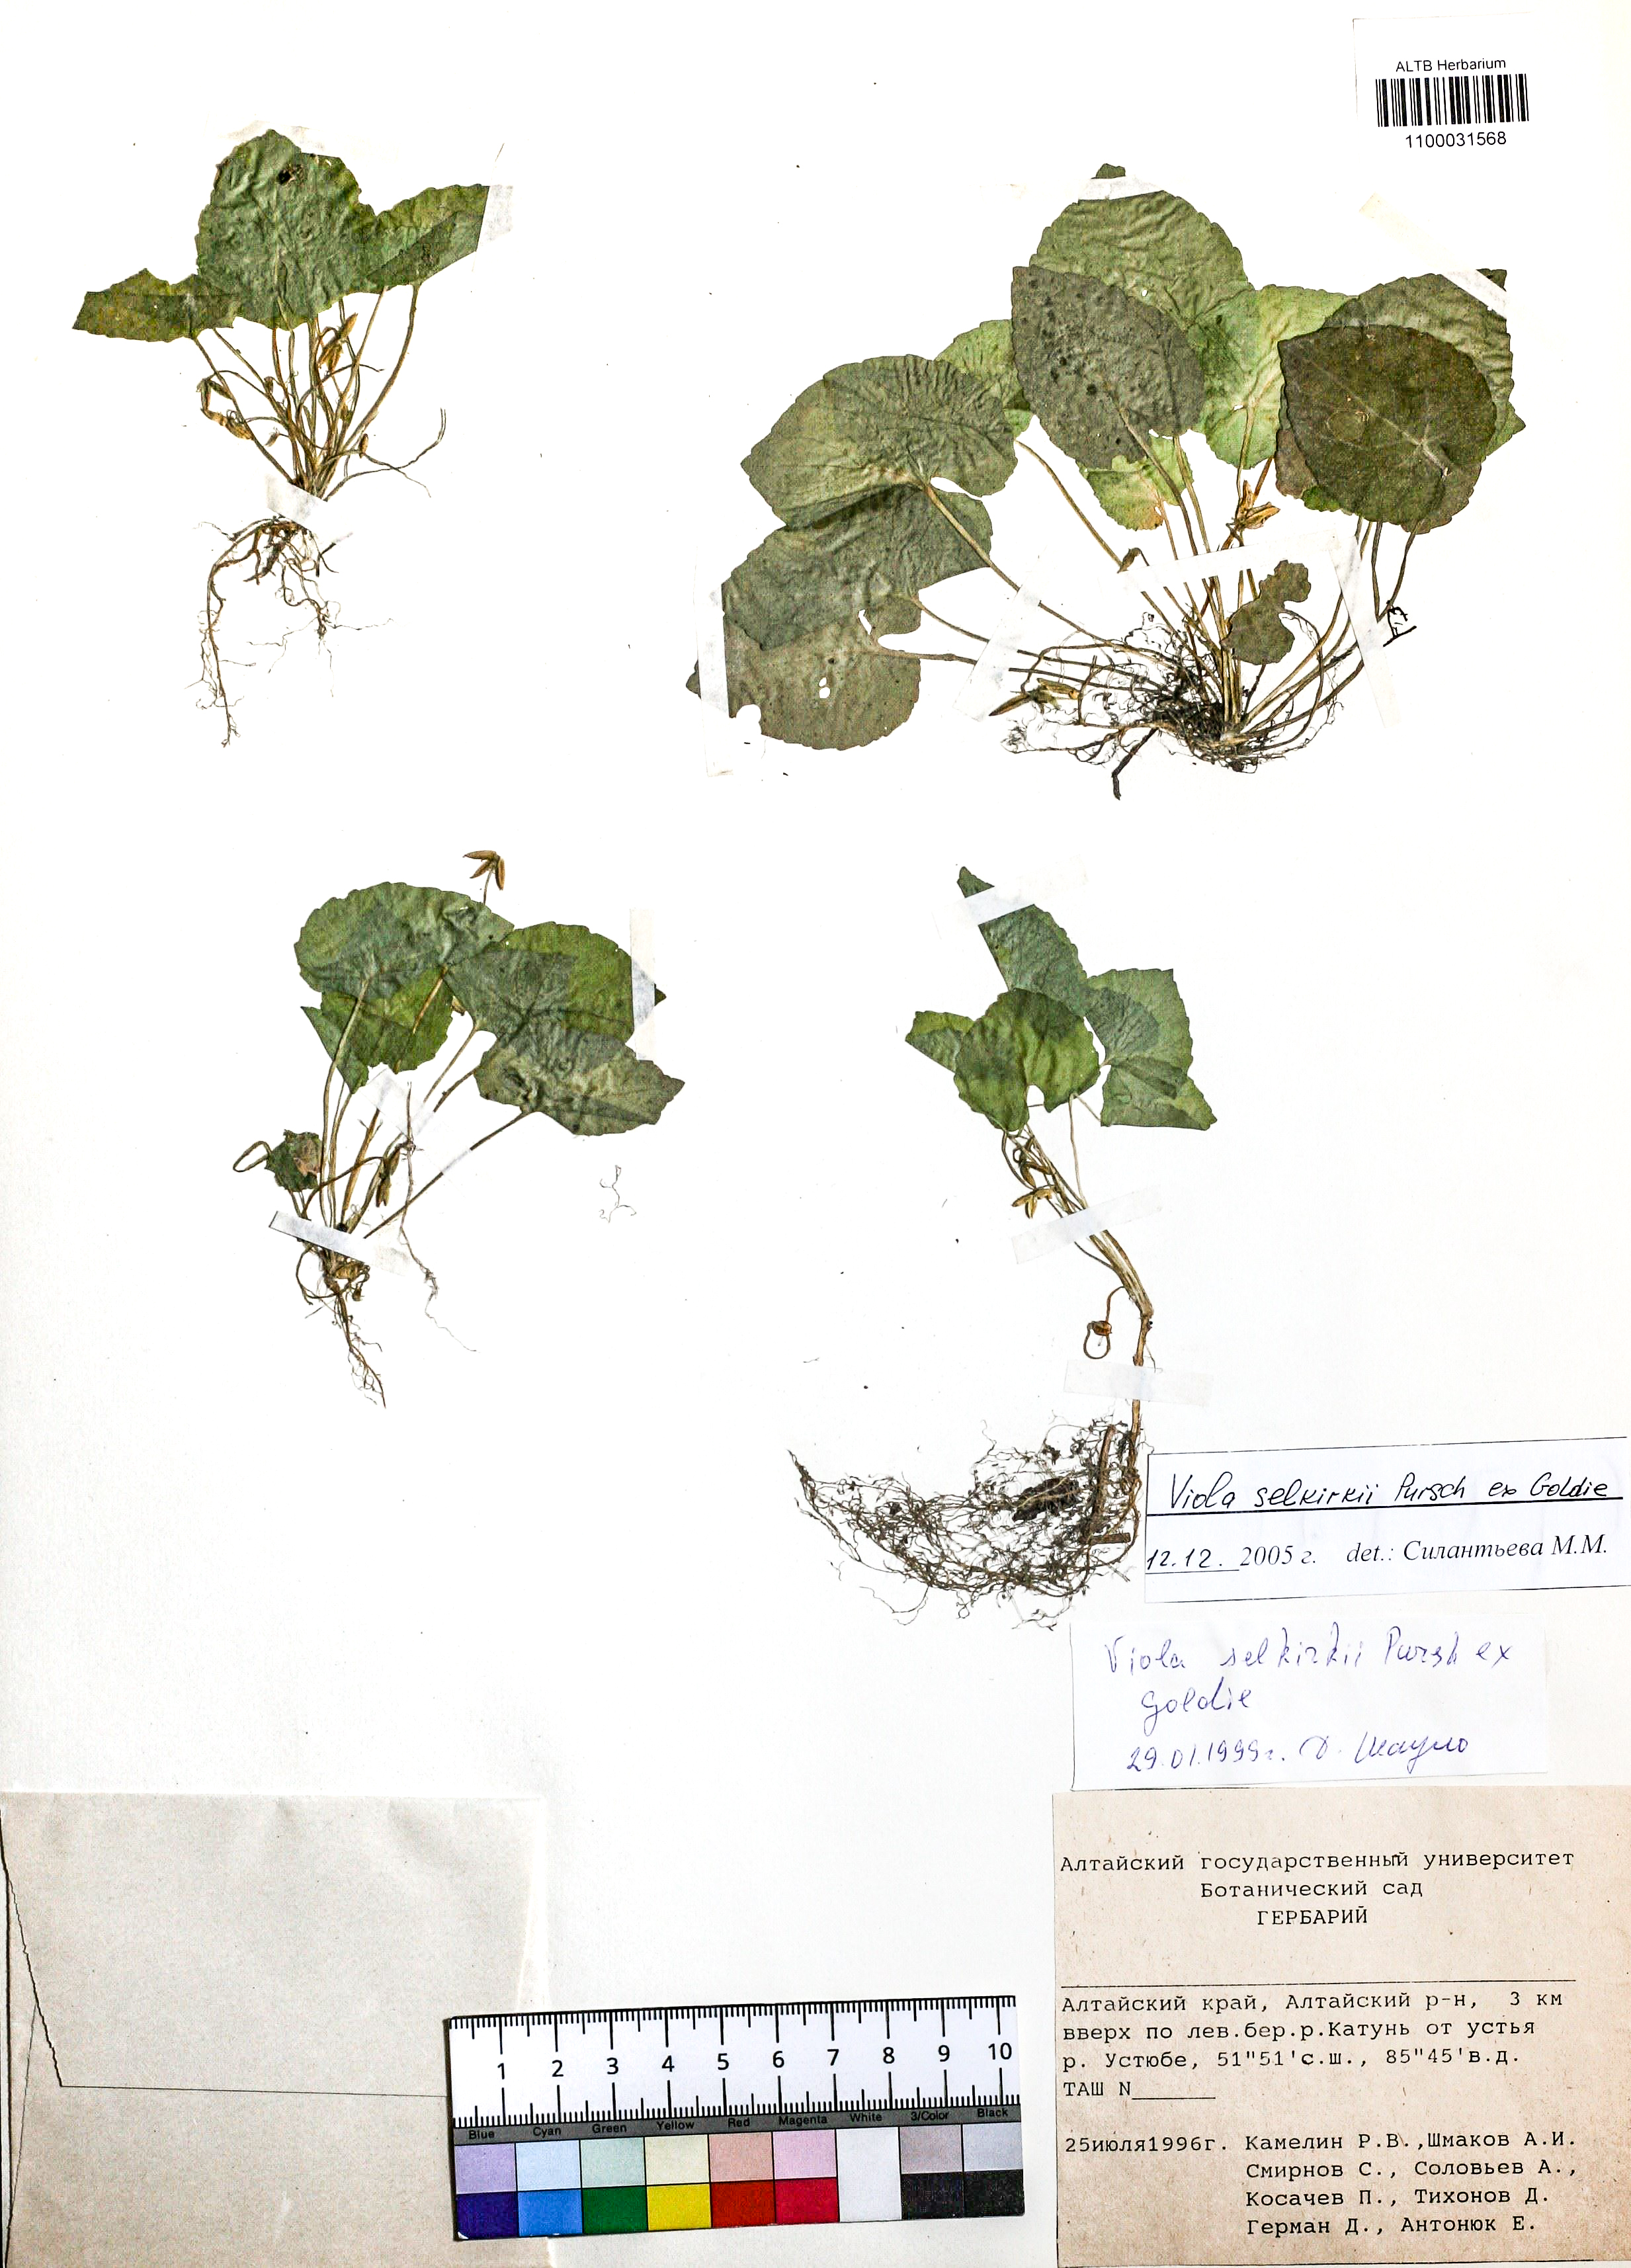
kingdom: Plantae
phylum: Tracheophyta
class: Magnoliopsida
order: Malpighiales
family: Violaceae
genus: Viola
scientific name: Viola selkirkii
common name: Selkirk's violet
